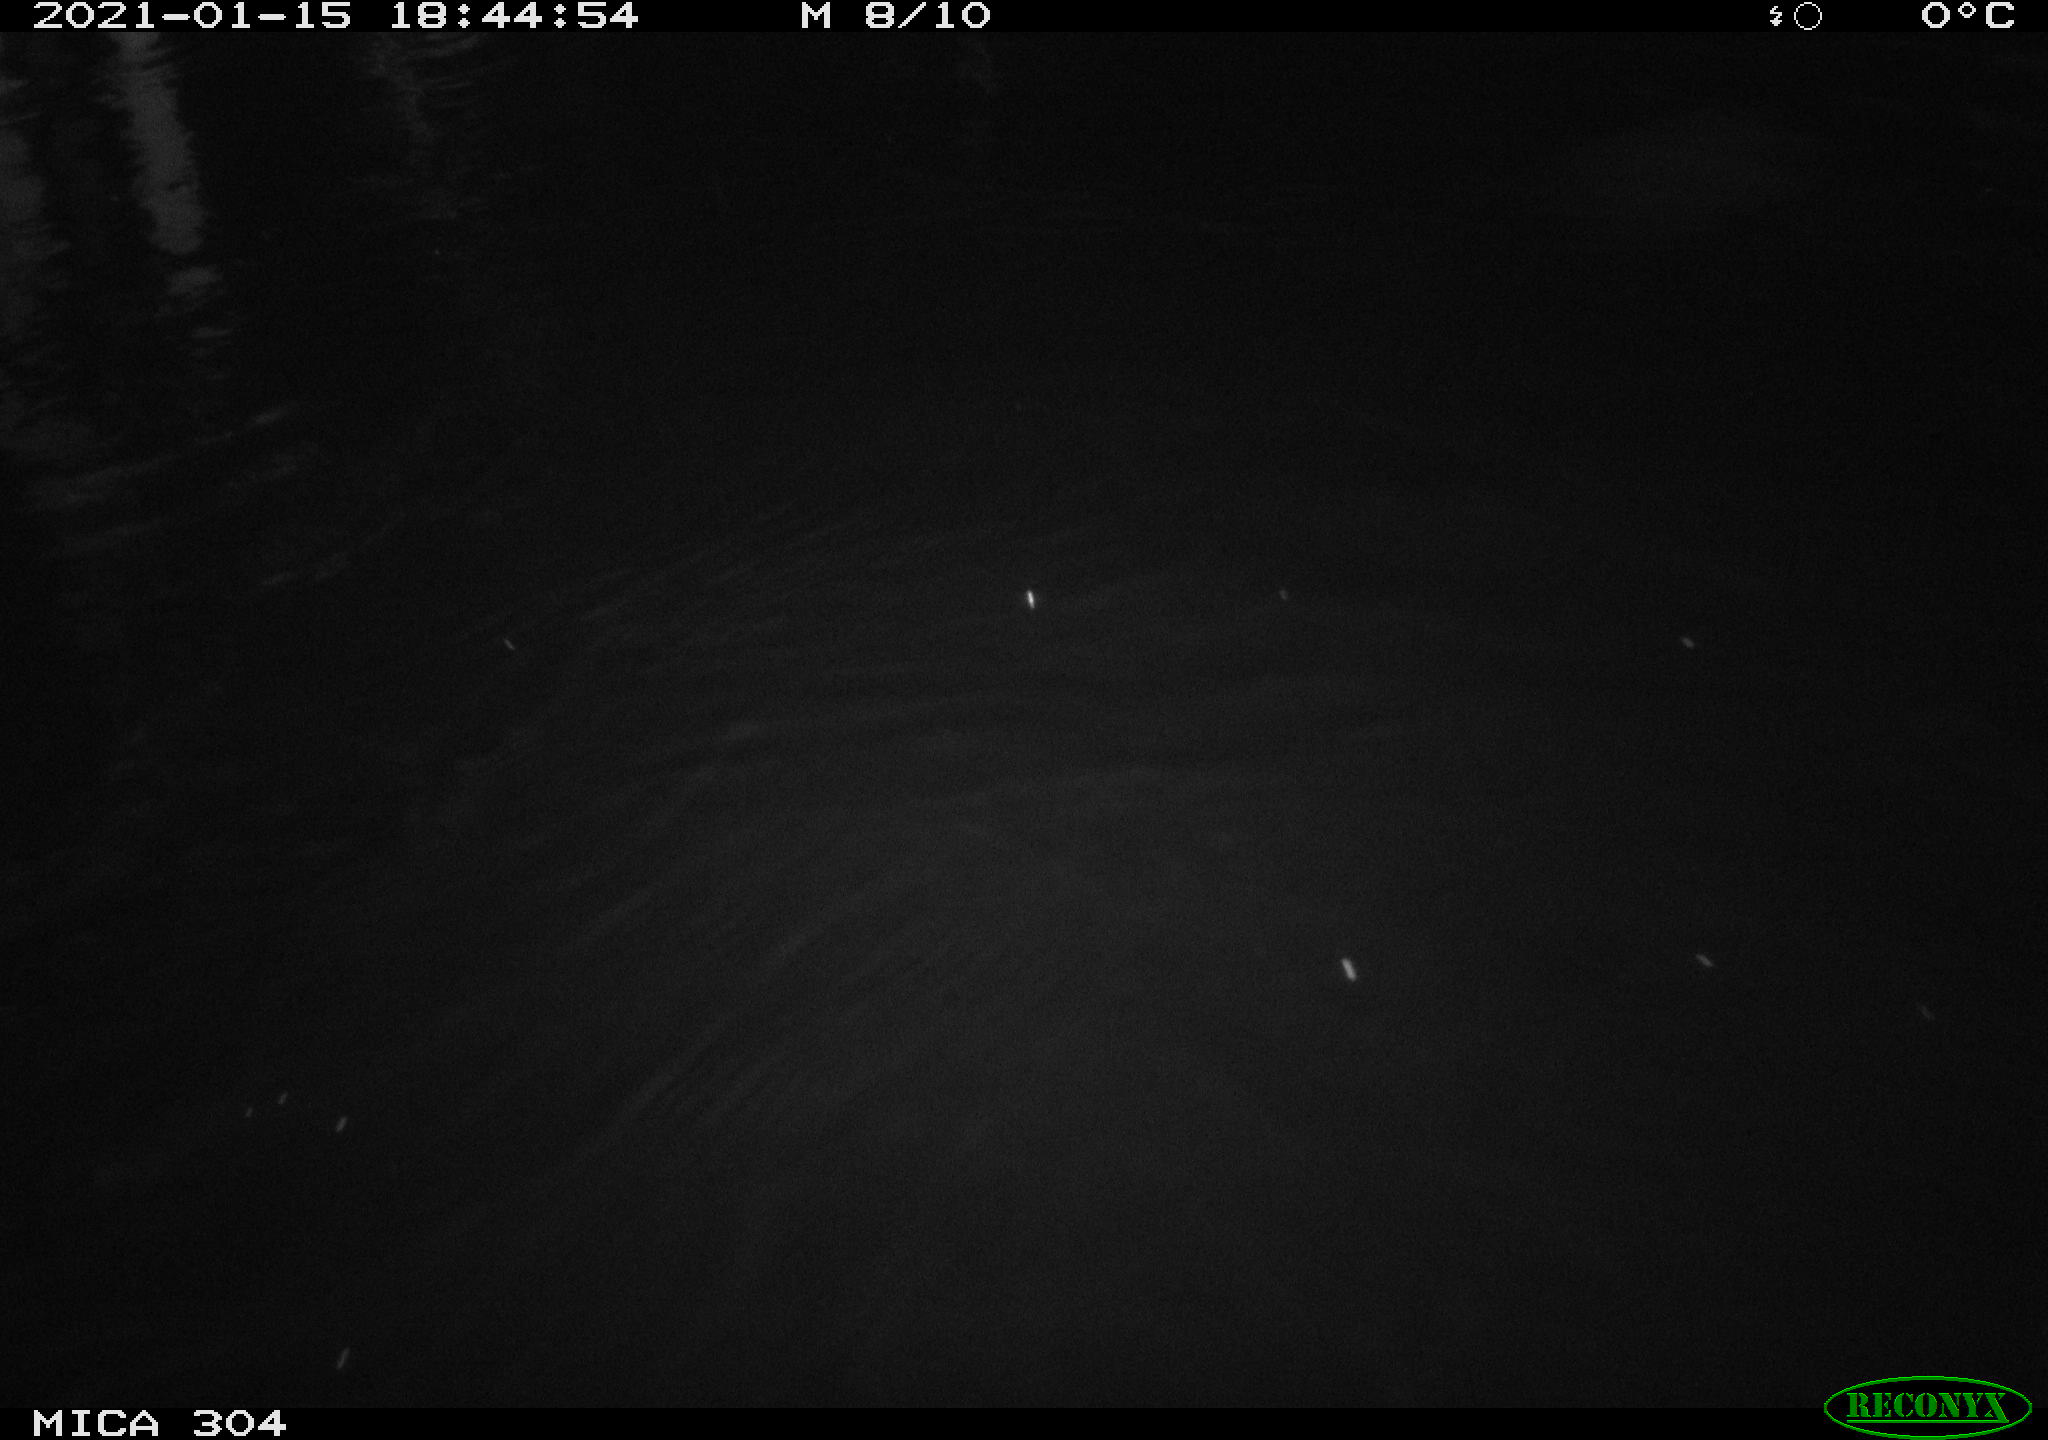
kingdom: Animalia
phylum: Chordata
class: Mammalia
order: Rodentia
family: Muridae
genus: Rattus
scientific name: Rattus norvegicus
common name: Brown rat
